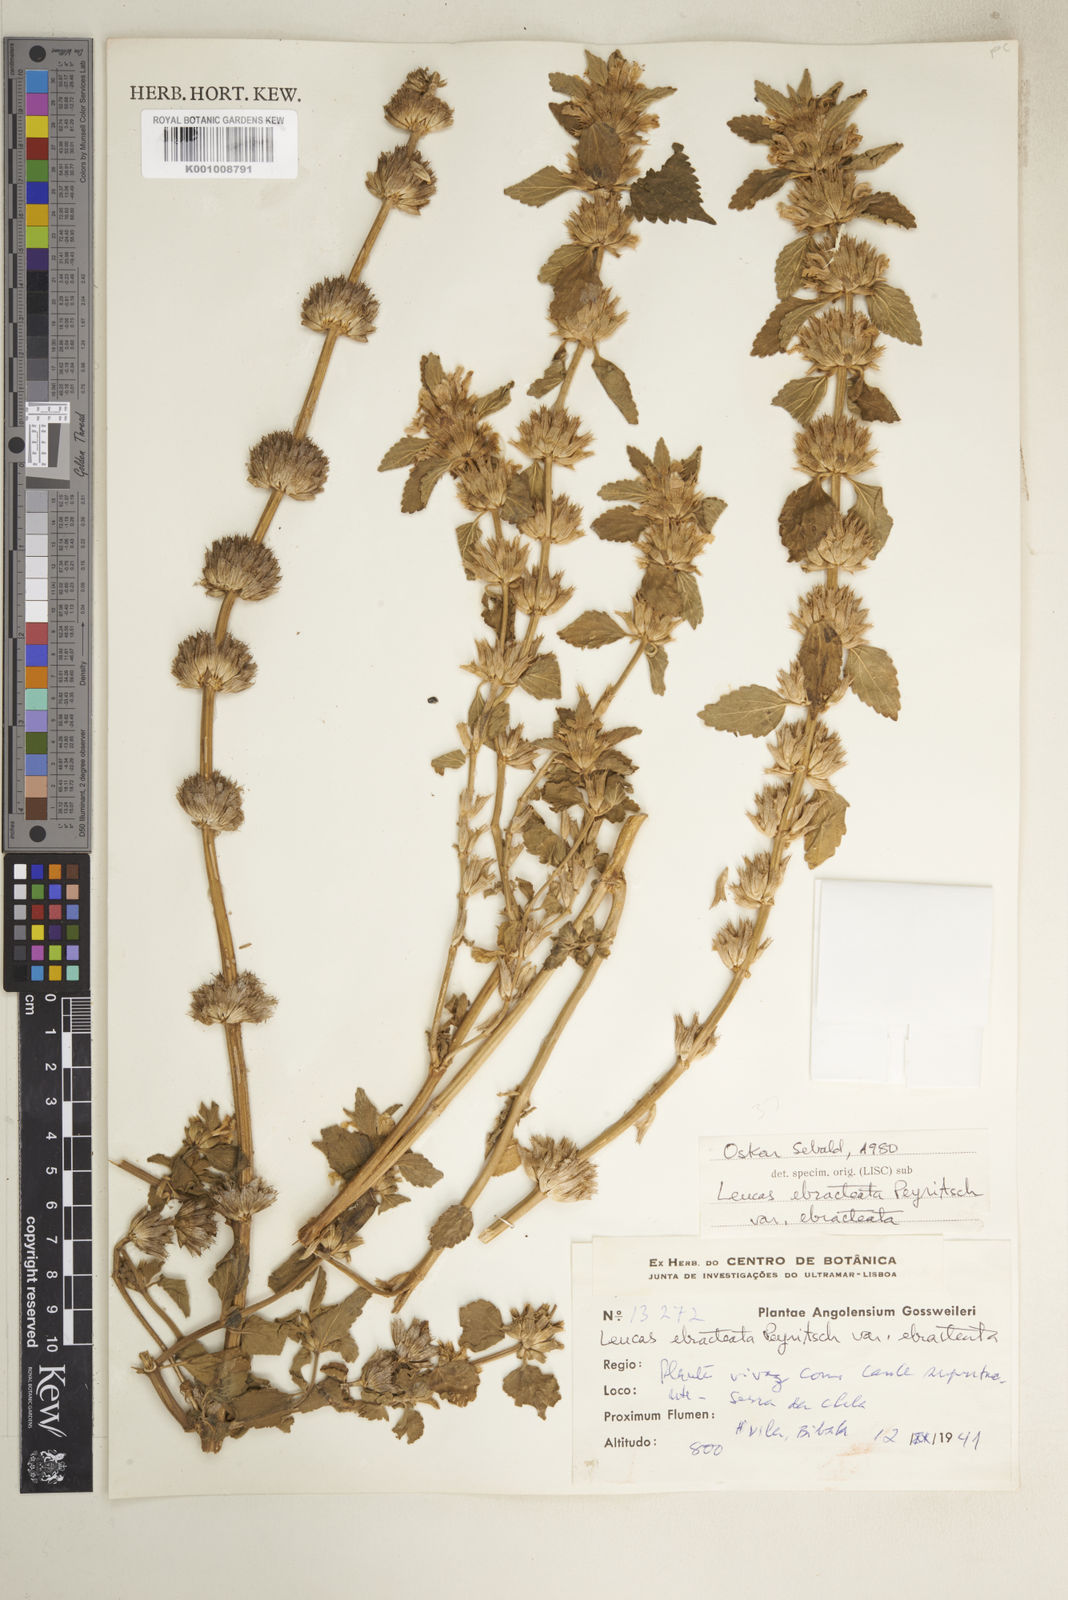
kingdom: Plantae
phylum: Tracheophyta
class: Magnoliopsida
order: Lamiales
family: Lamiaceae
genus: Leucas
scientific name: Leucas ebracteata
